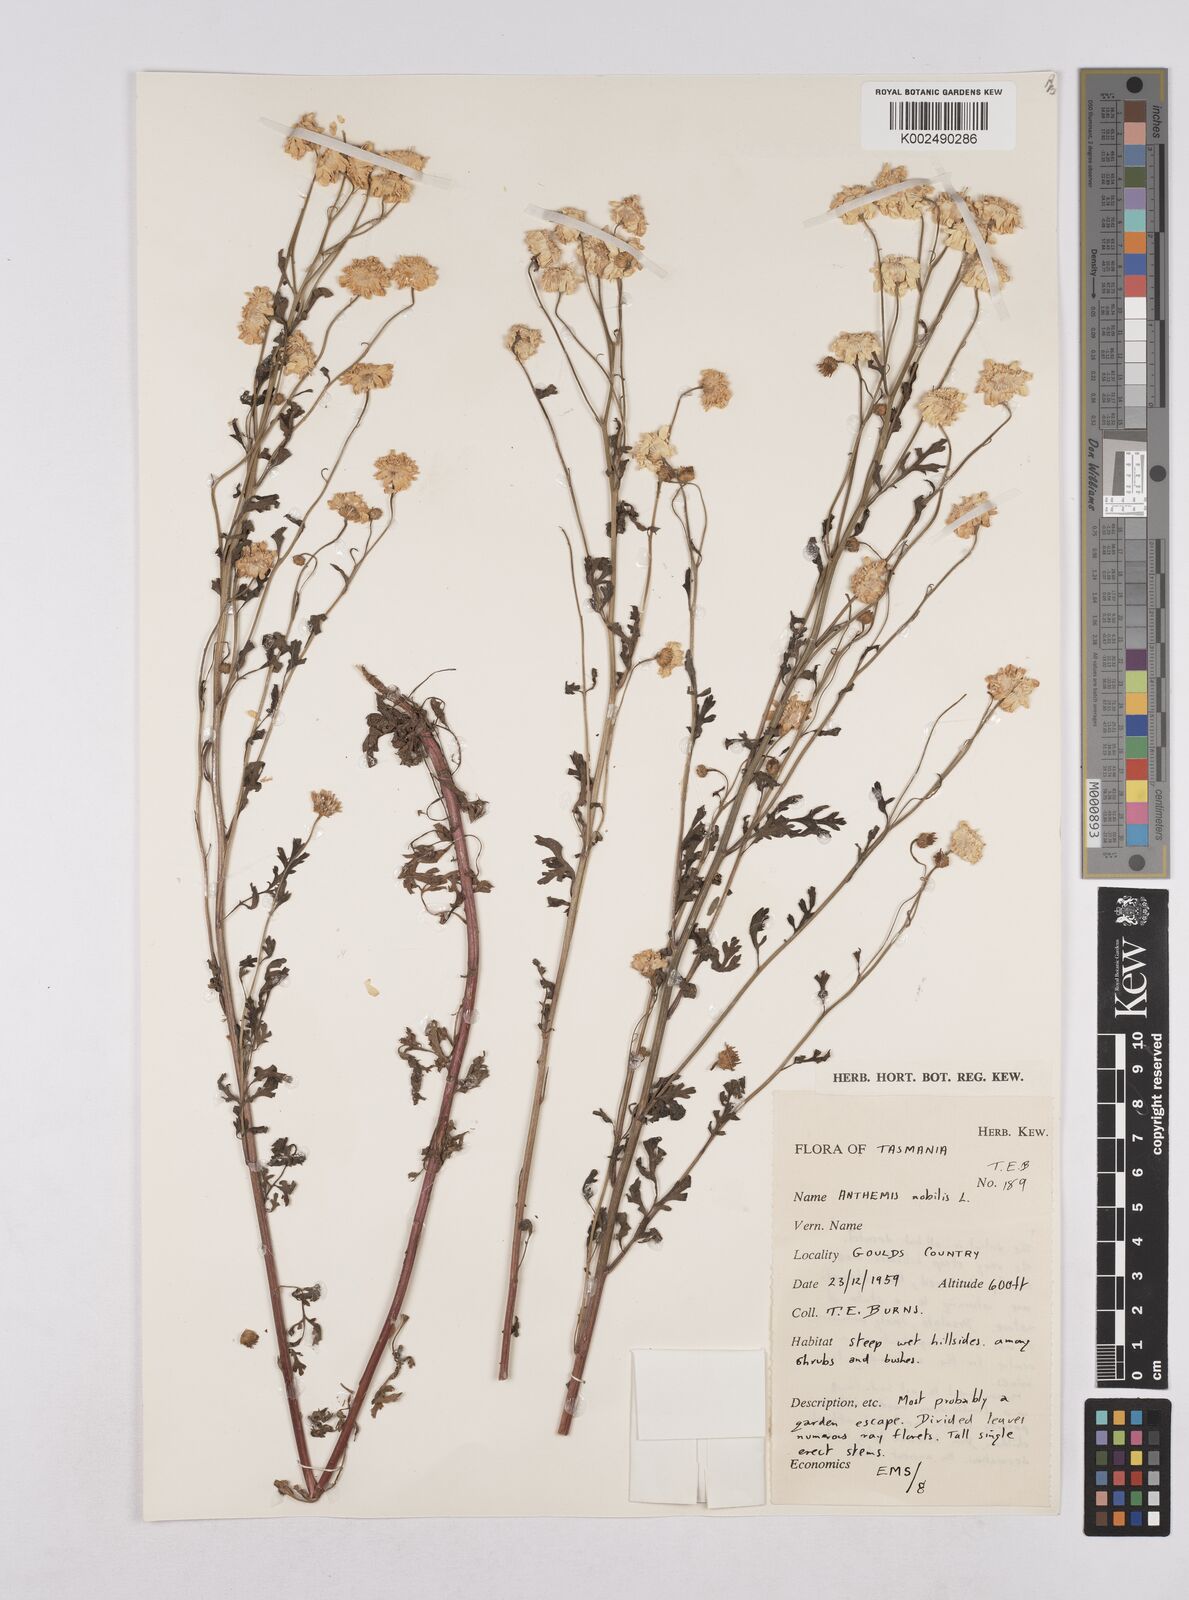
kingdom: Plantae
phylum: Tracheophyta
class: Magnoliopsida
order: Asterales
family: Asteraceae
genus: Chamaemelum
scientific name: Chamaemelum nobile
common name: Roman chamomile
